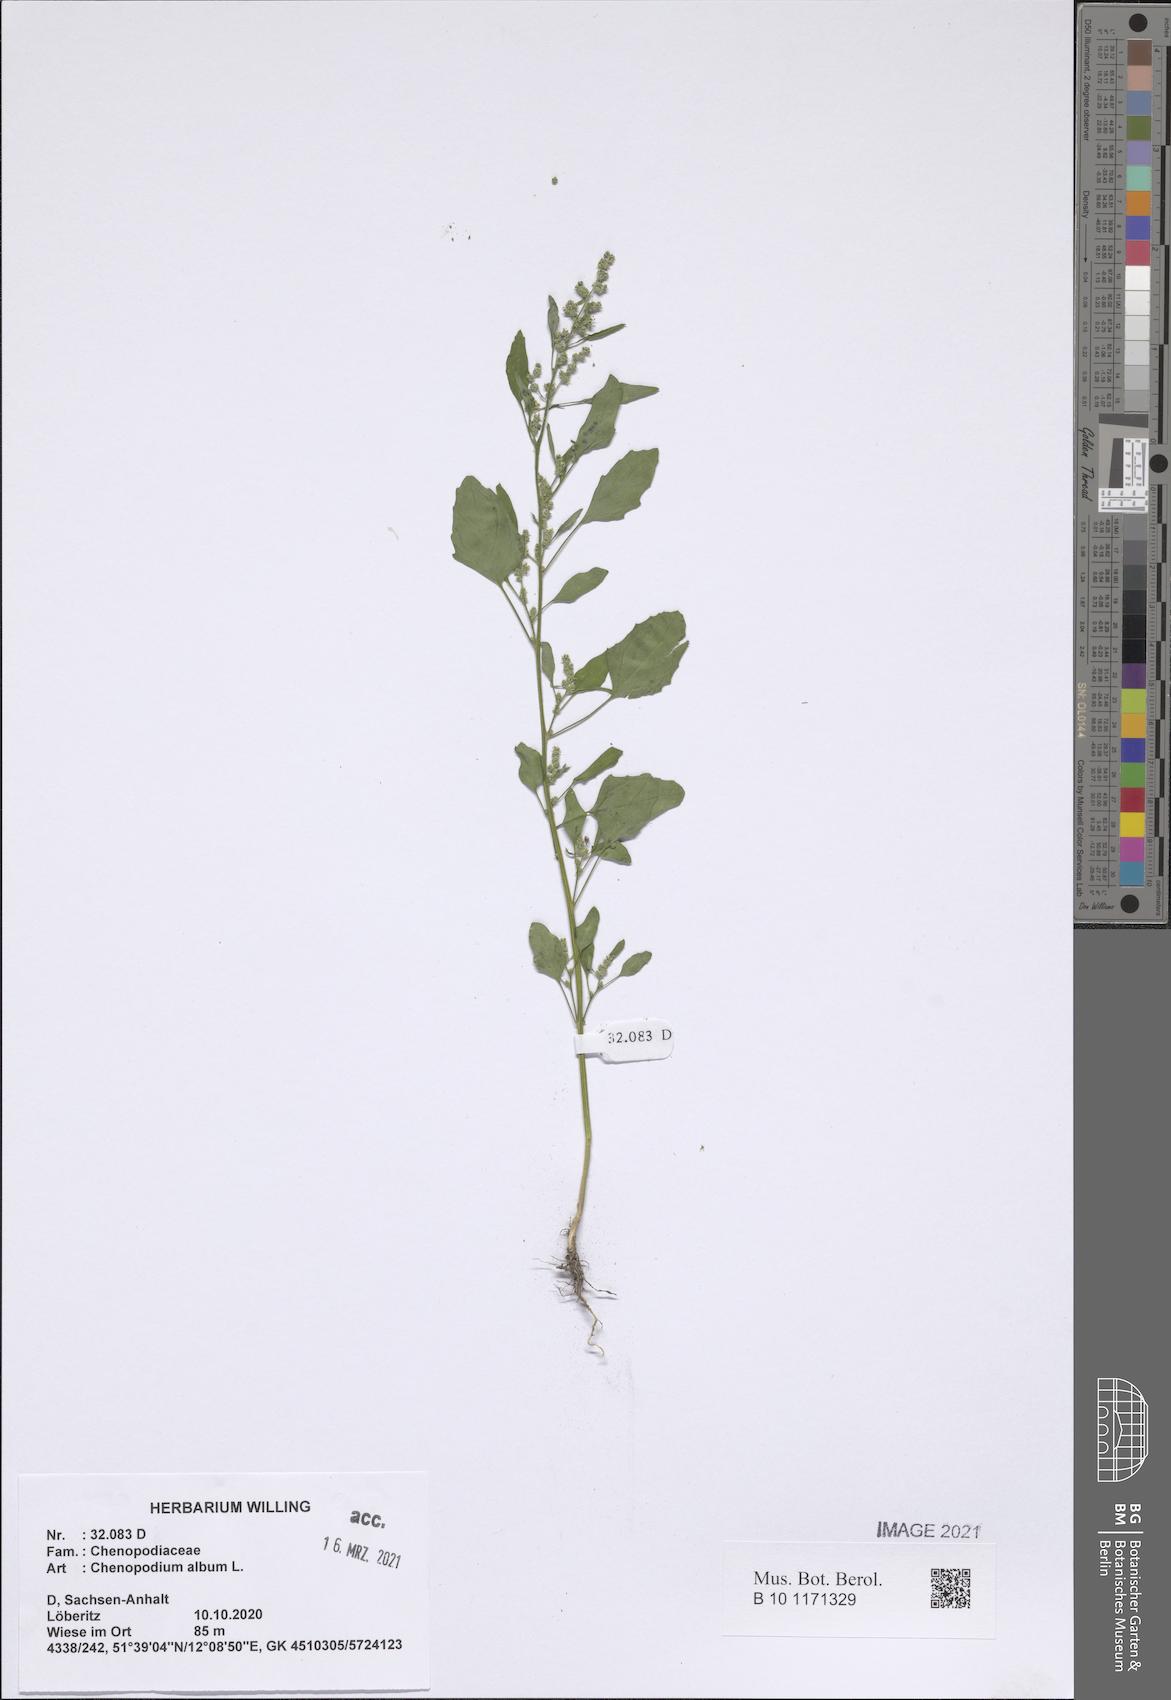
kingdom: Plantae
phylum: Tracheophyta
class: Magnoliopsida
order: Caryophyllales
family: Amaranthaceae
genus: Chenopodium
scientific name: Chenopodium album
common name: Fat-hen
